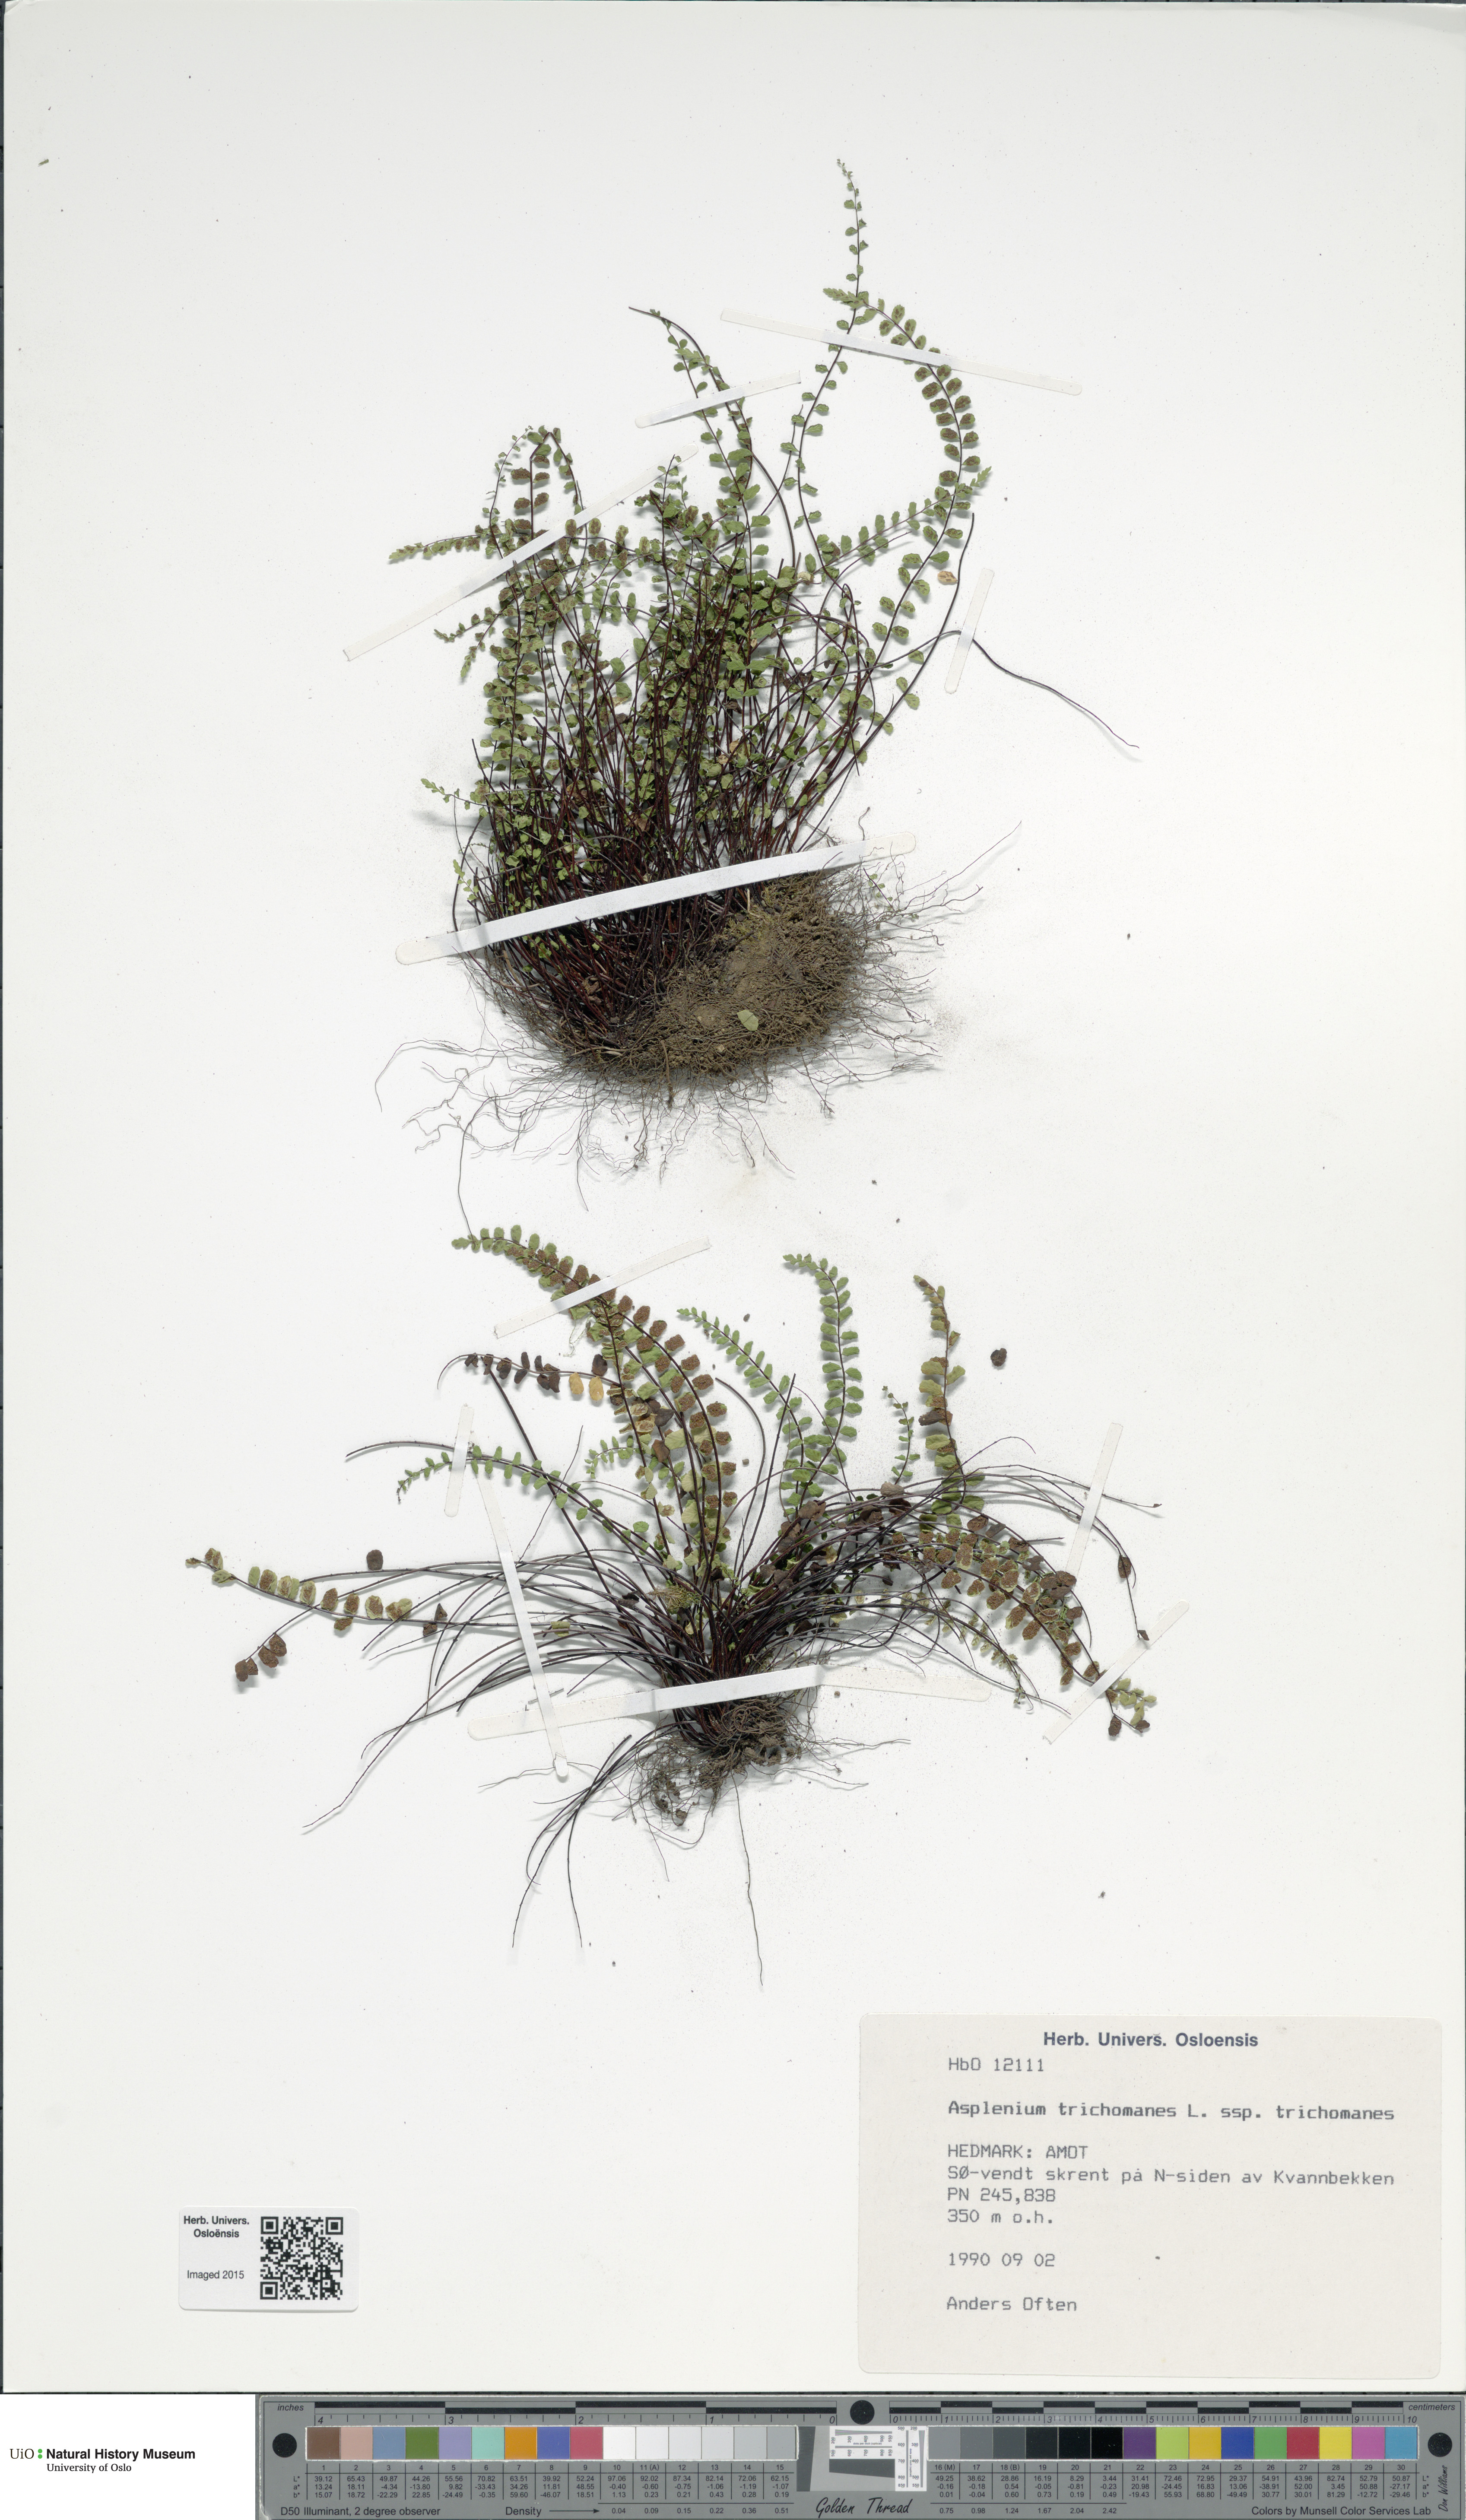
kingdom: Plantae
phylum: Tracheophyta
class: Polypodiopsida
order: Polypodiales
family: Aspleniaceae
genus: Asplenium
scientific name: Asplenium trichomanes
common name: Maidenhair spleenwort
